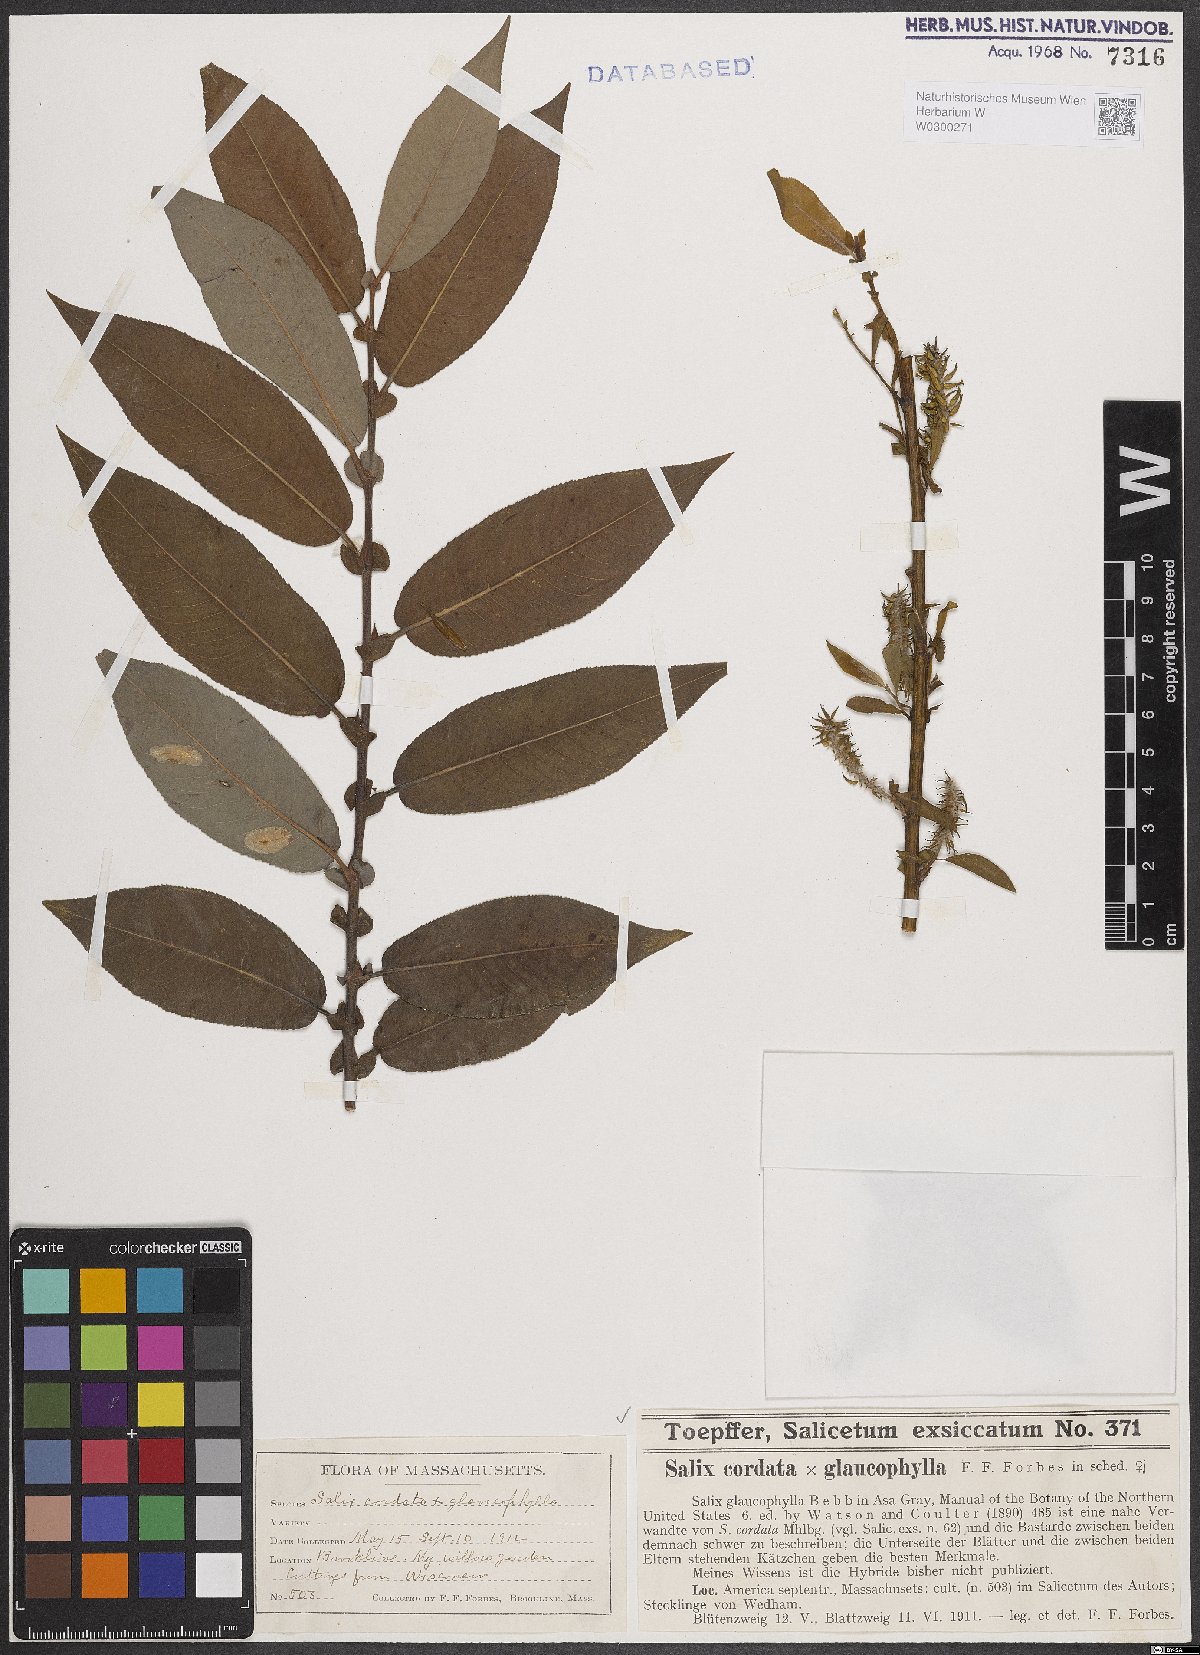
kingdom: Plantae
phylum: Tracheophyta
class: Magnoliopsida
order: Malpighiales
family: Salicaceae
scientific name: Salicaceae
